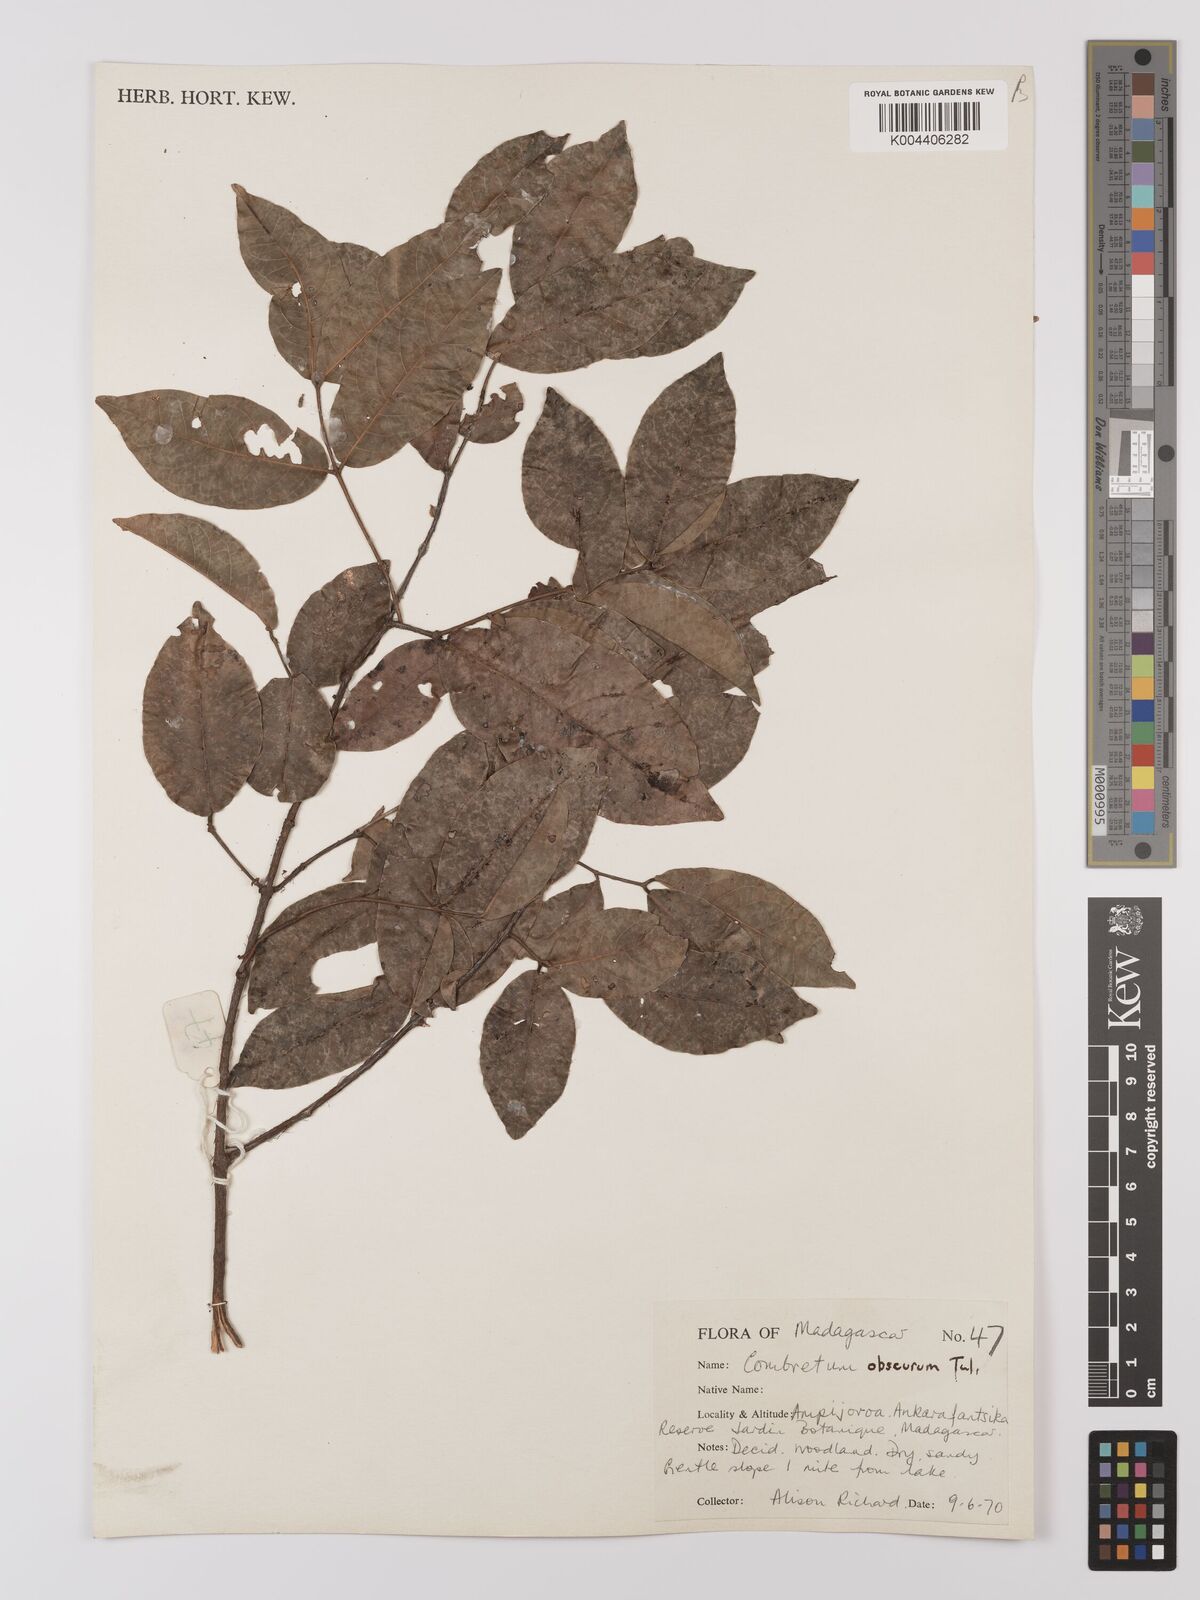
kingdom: Plantae
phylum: Tracheophyta
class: Magnoliopsida
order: Myrtales
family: Combretaceae
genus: Combretum
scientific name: Combretum obscurum
